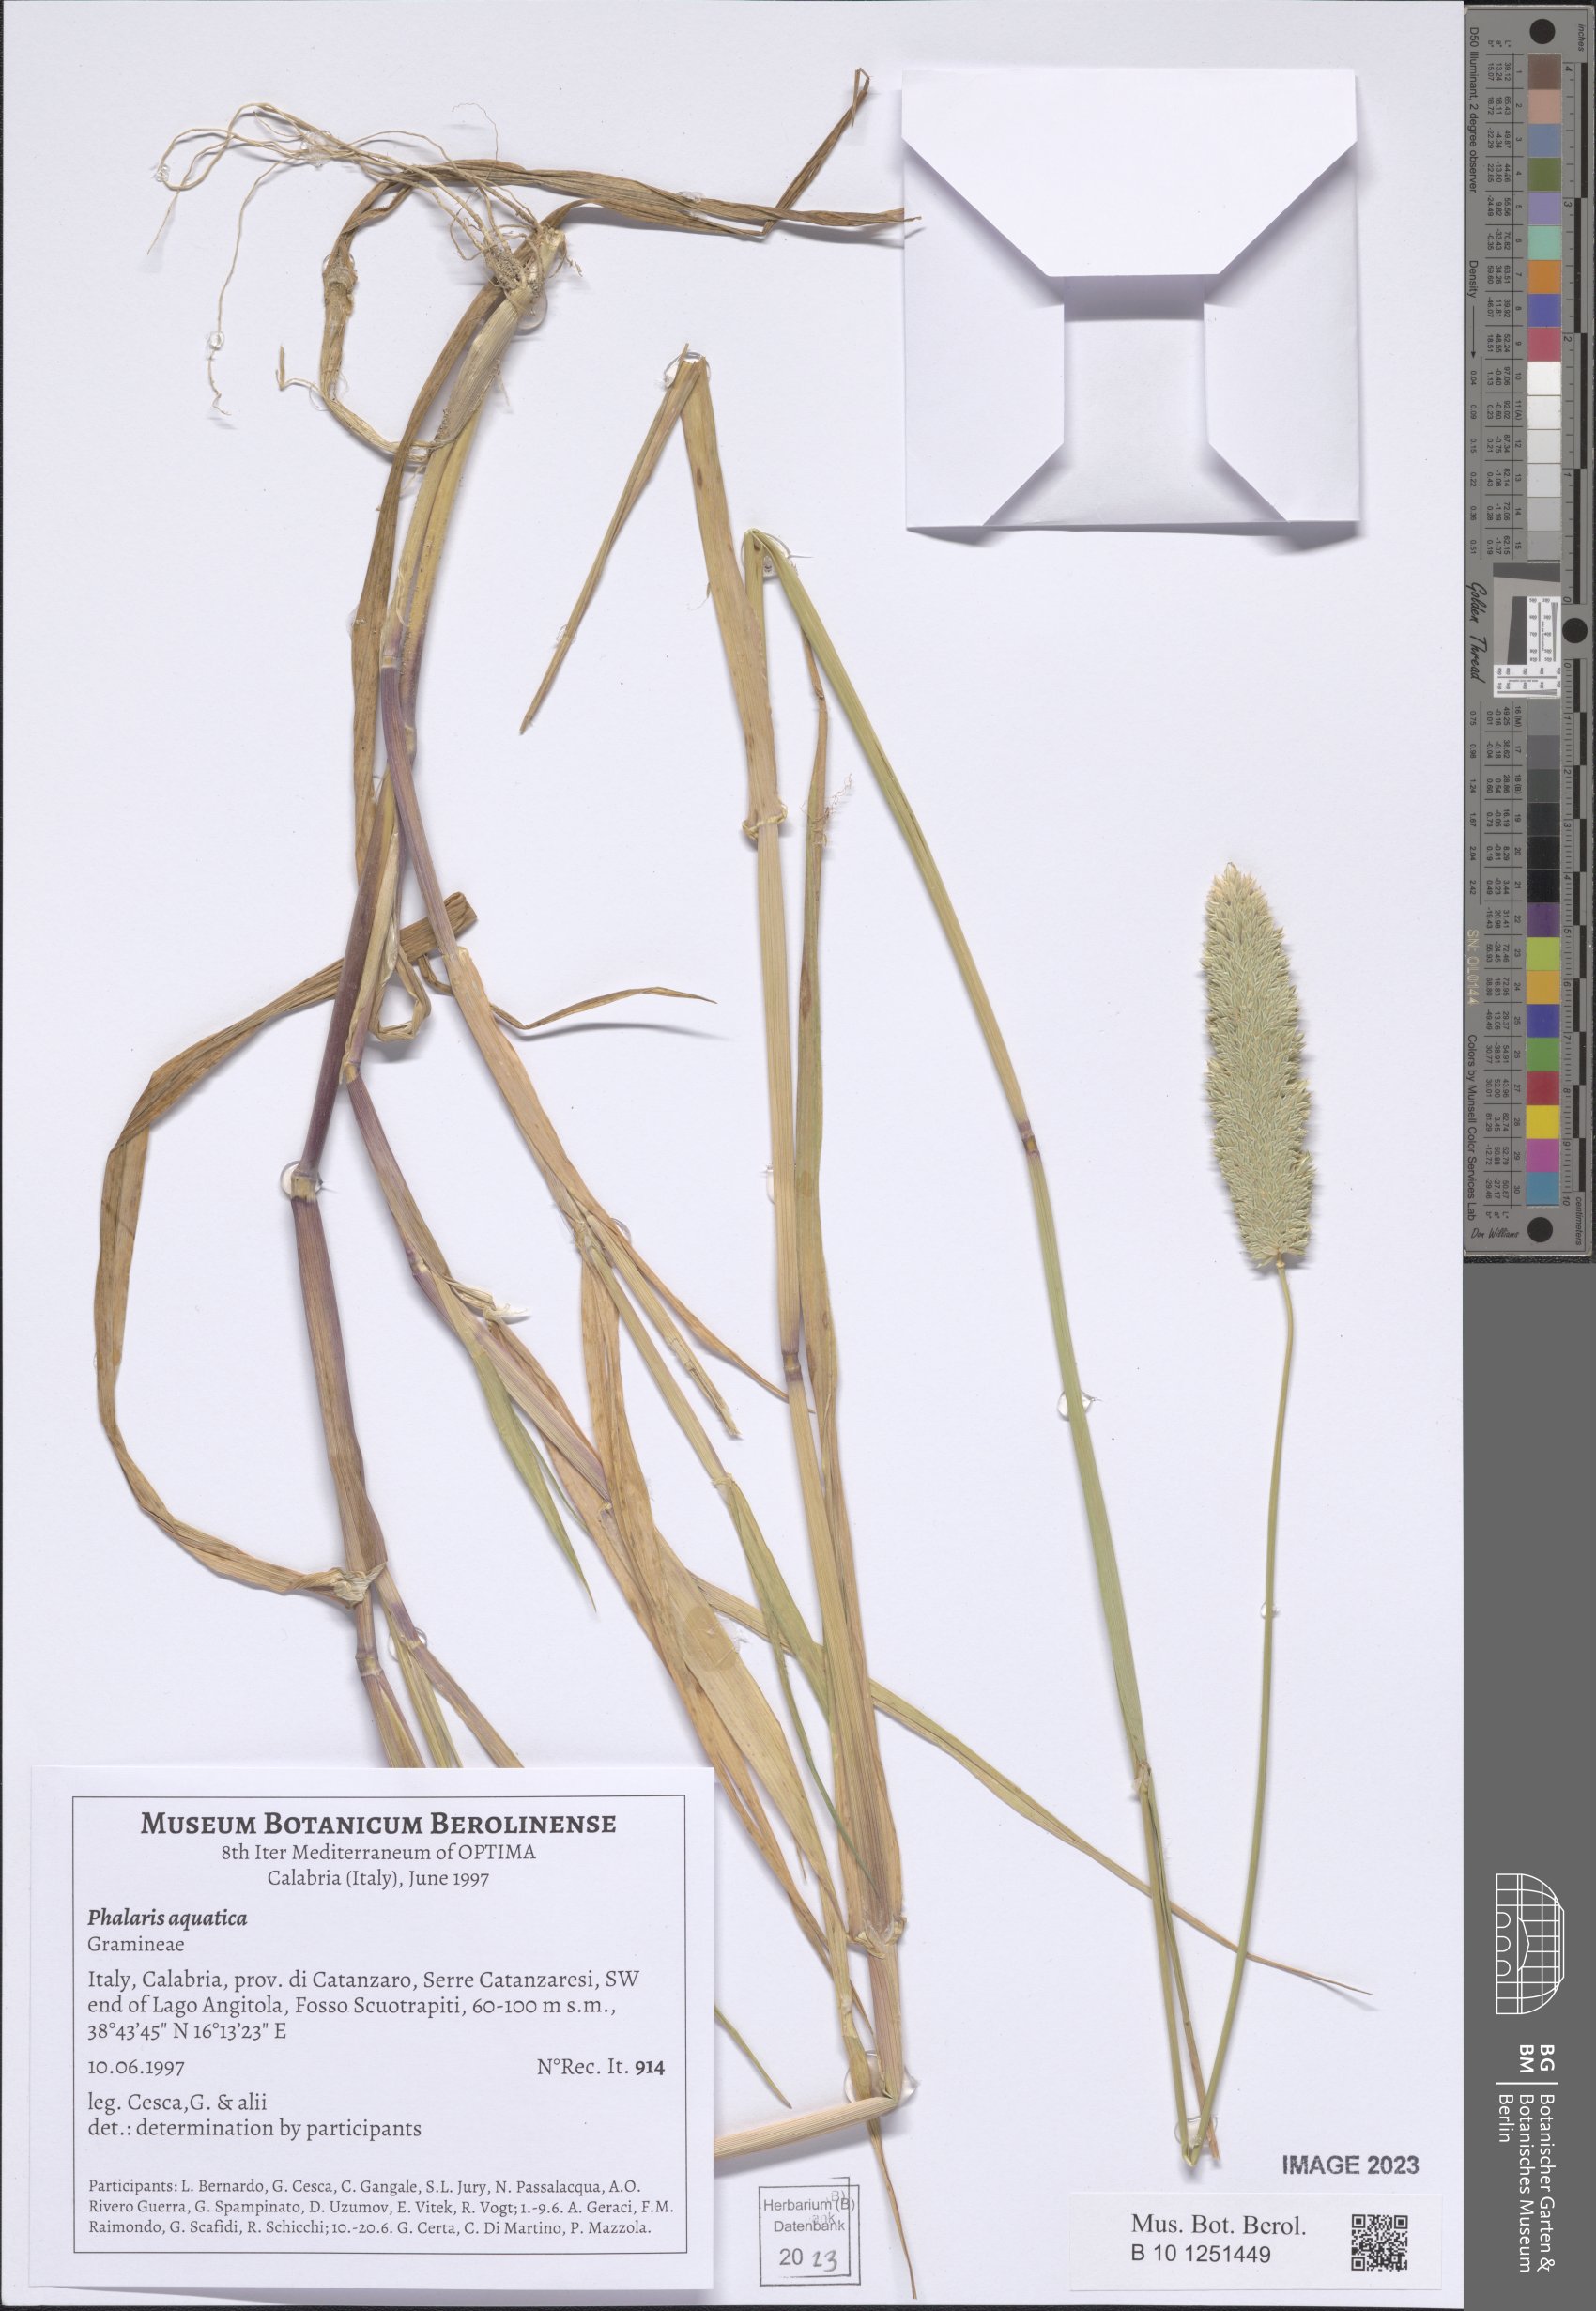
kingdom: Plantae
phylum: Tracheophyta
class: Liliopsida
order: Poales
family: Poaceae
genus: Phalaris
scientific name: Phalaris aquatica
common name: Bulbous canary-grass
